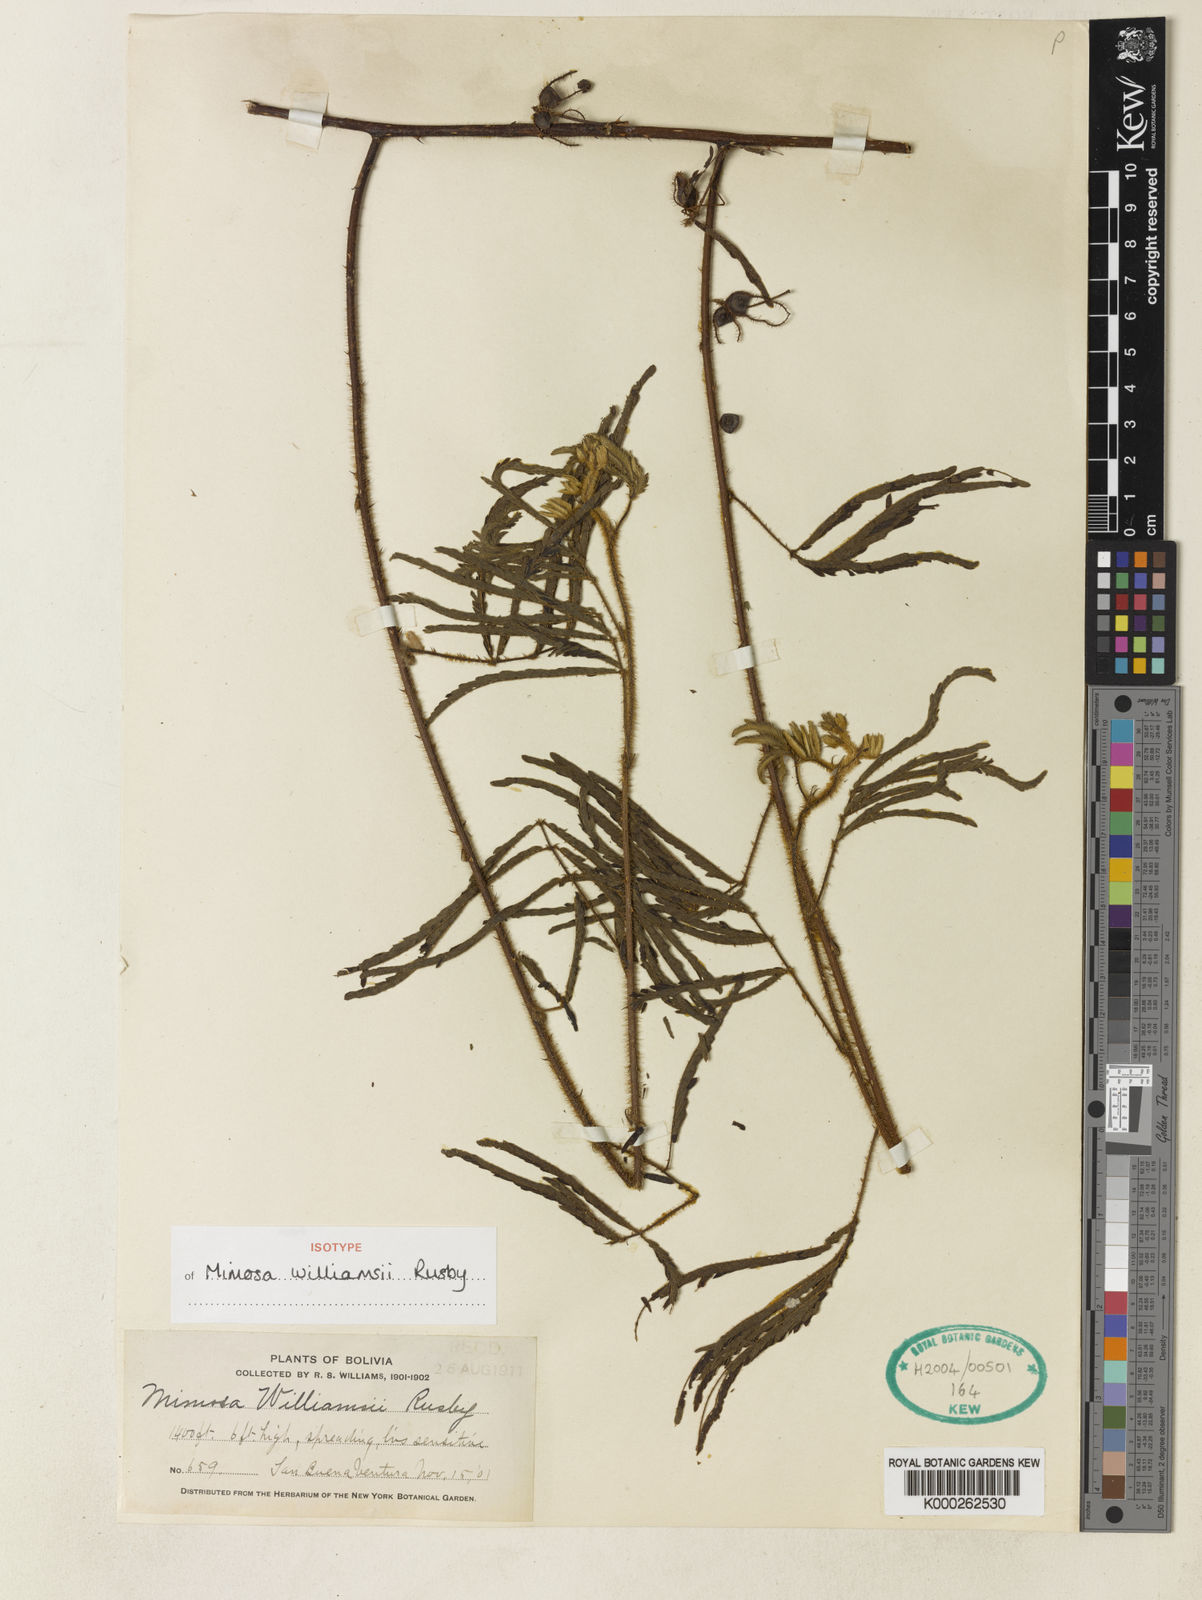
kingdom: Plantae
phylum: Tracheophyta
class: Magnoliopsida
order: Fabales
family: Fabaceae
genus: Mimosa
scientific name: Mimosa williamsii
